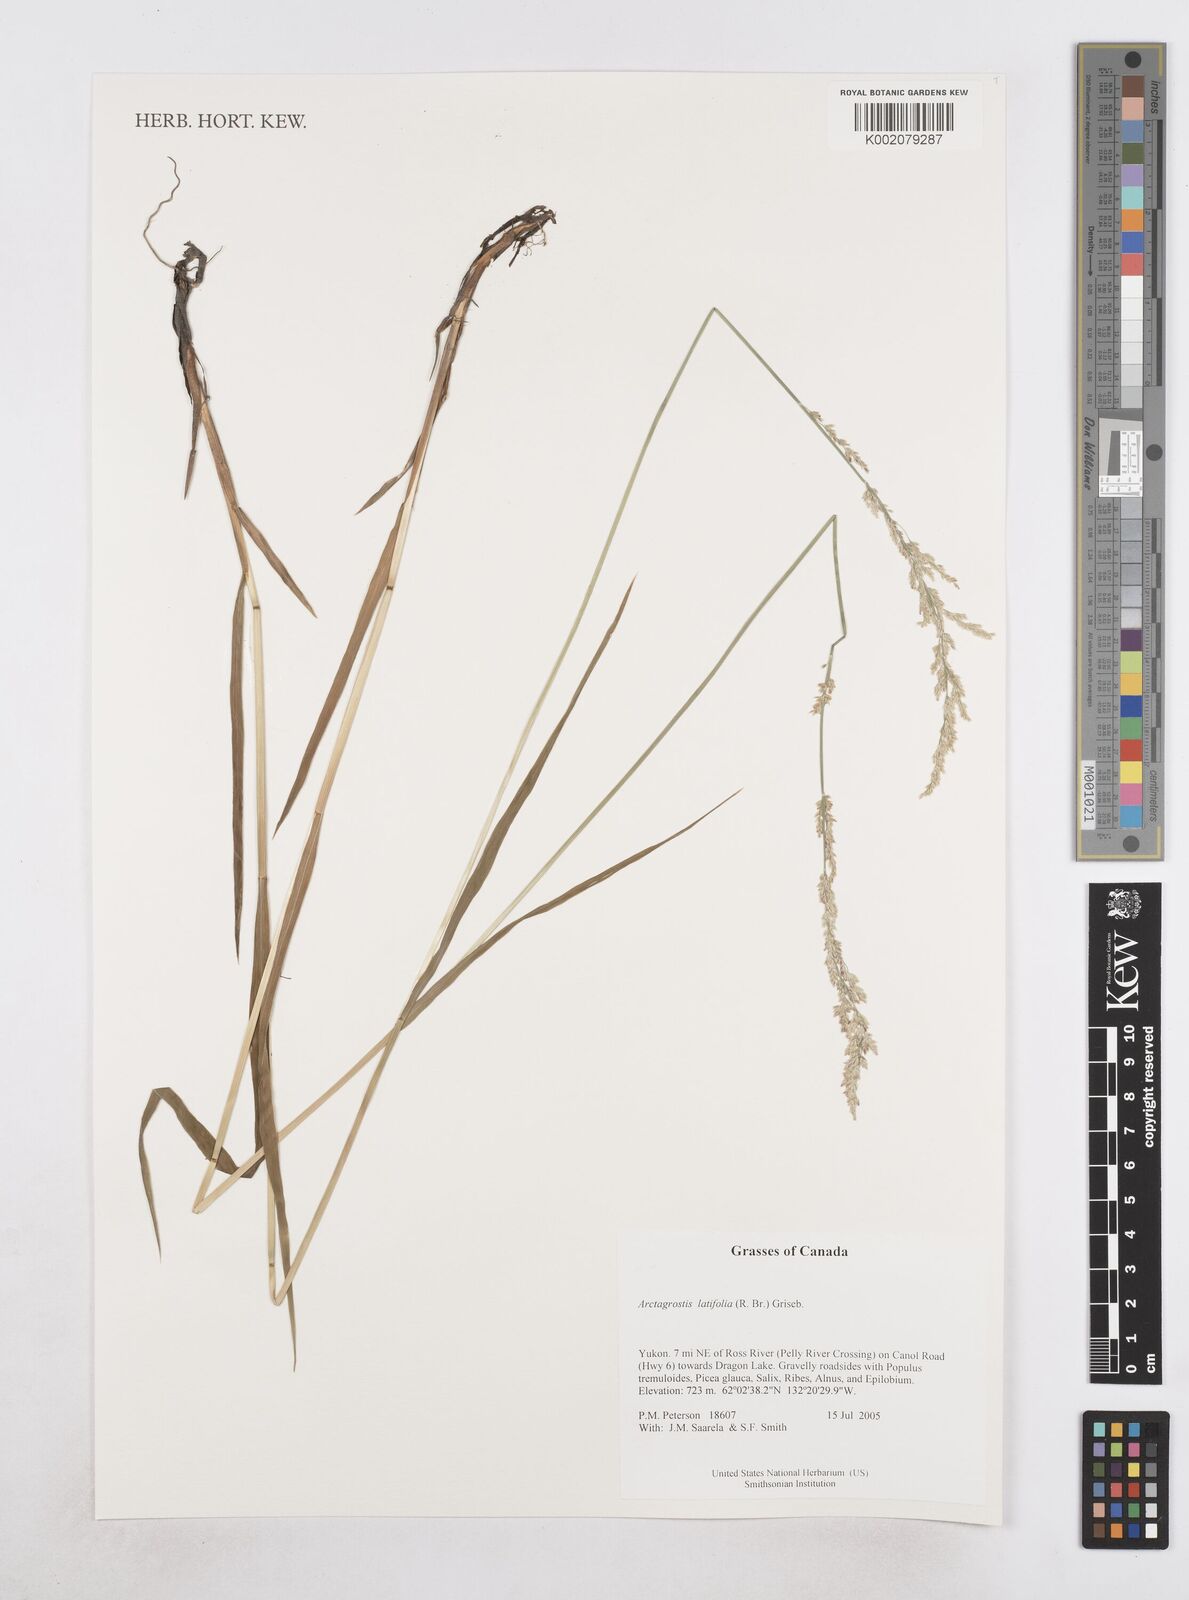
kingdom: Plantae
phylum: Tracheophyta
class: Liliopsida
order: Poales
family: Poaceae
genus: Arctagrostis
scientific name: Arctagrostis latifolia
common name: Arctic grass
